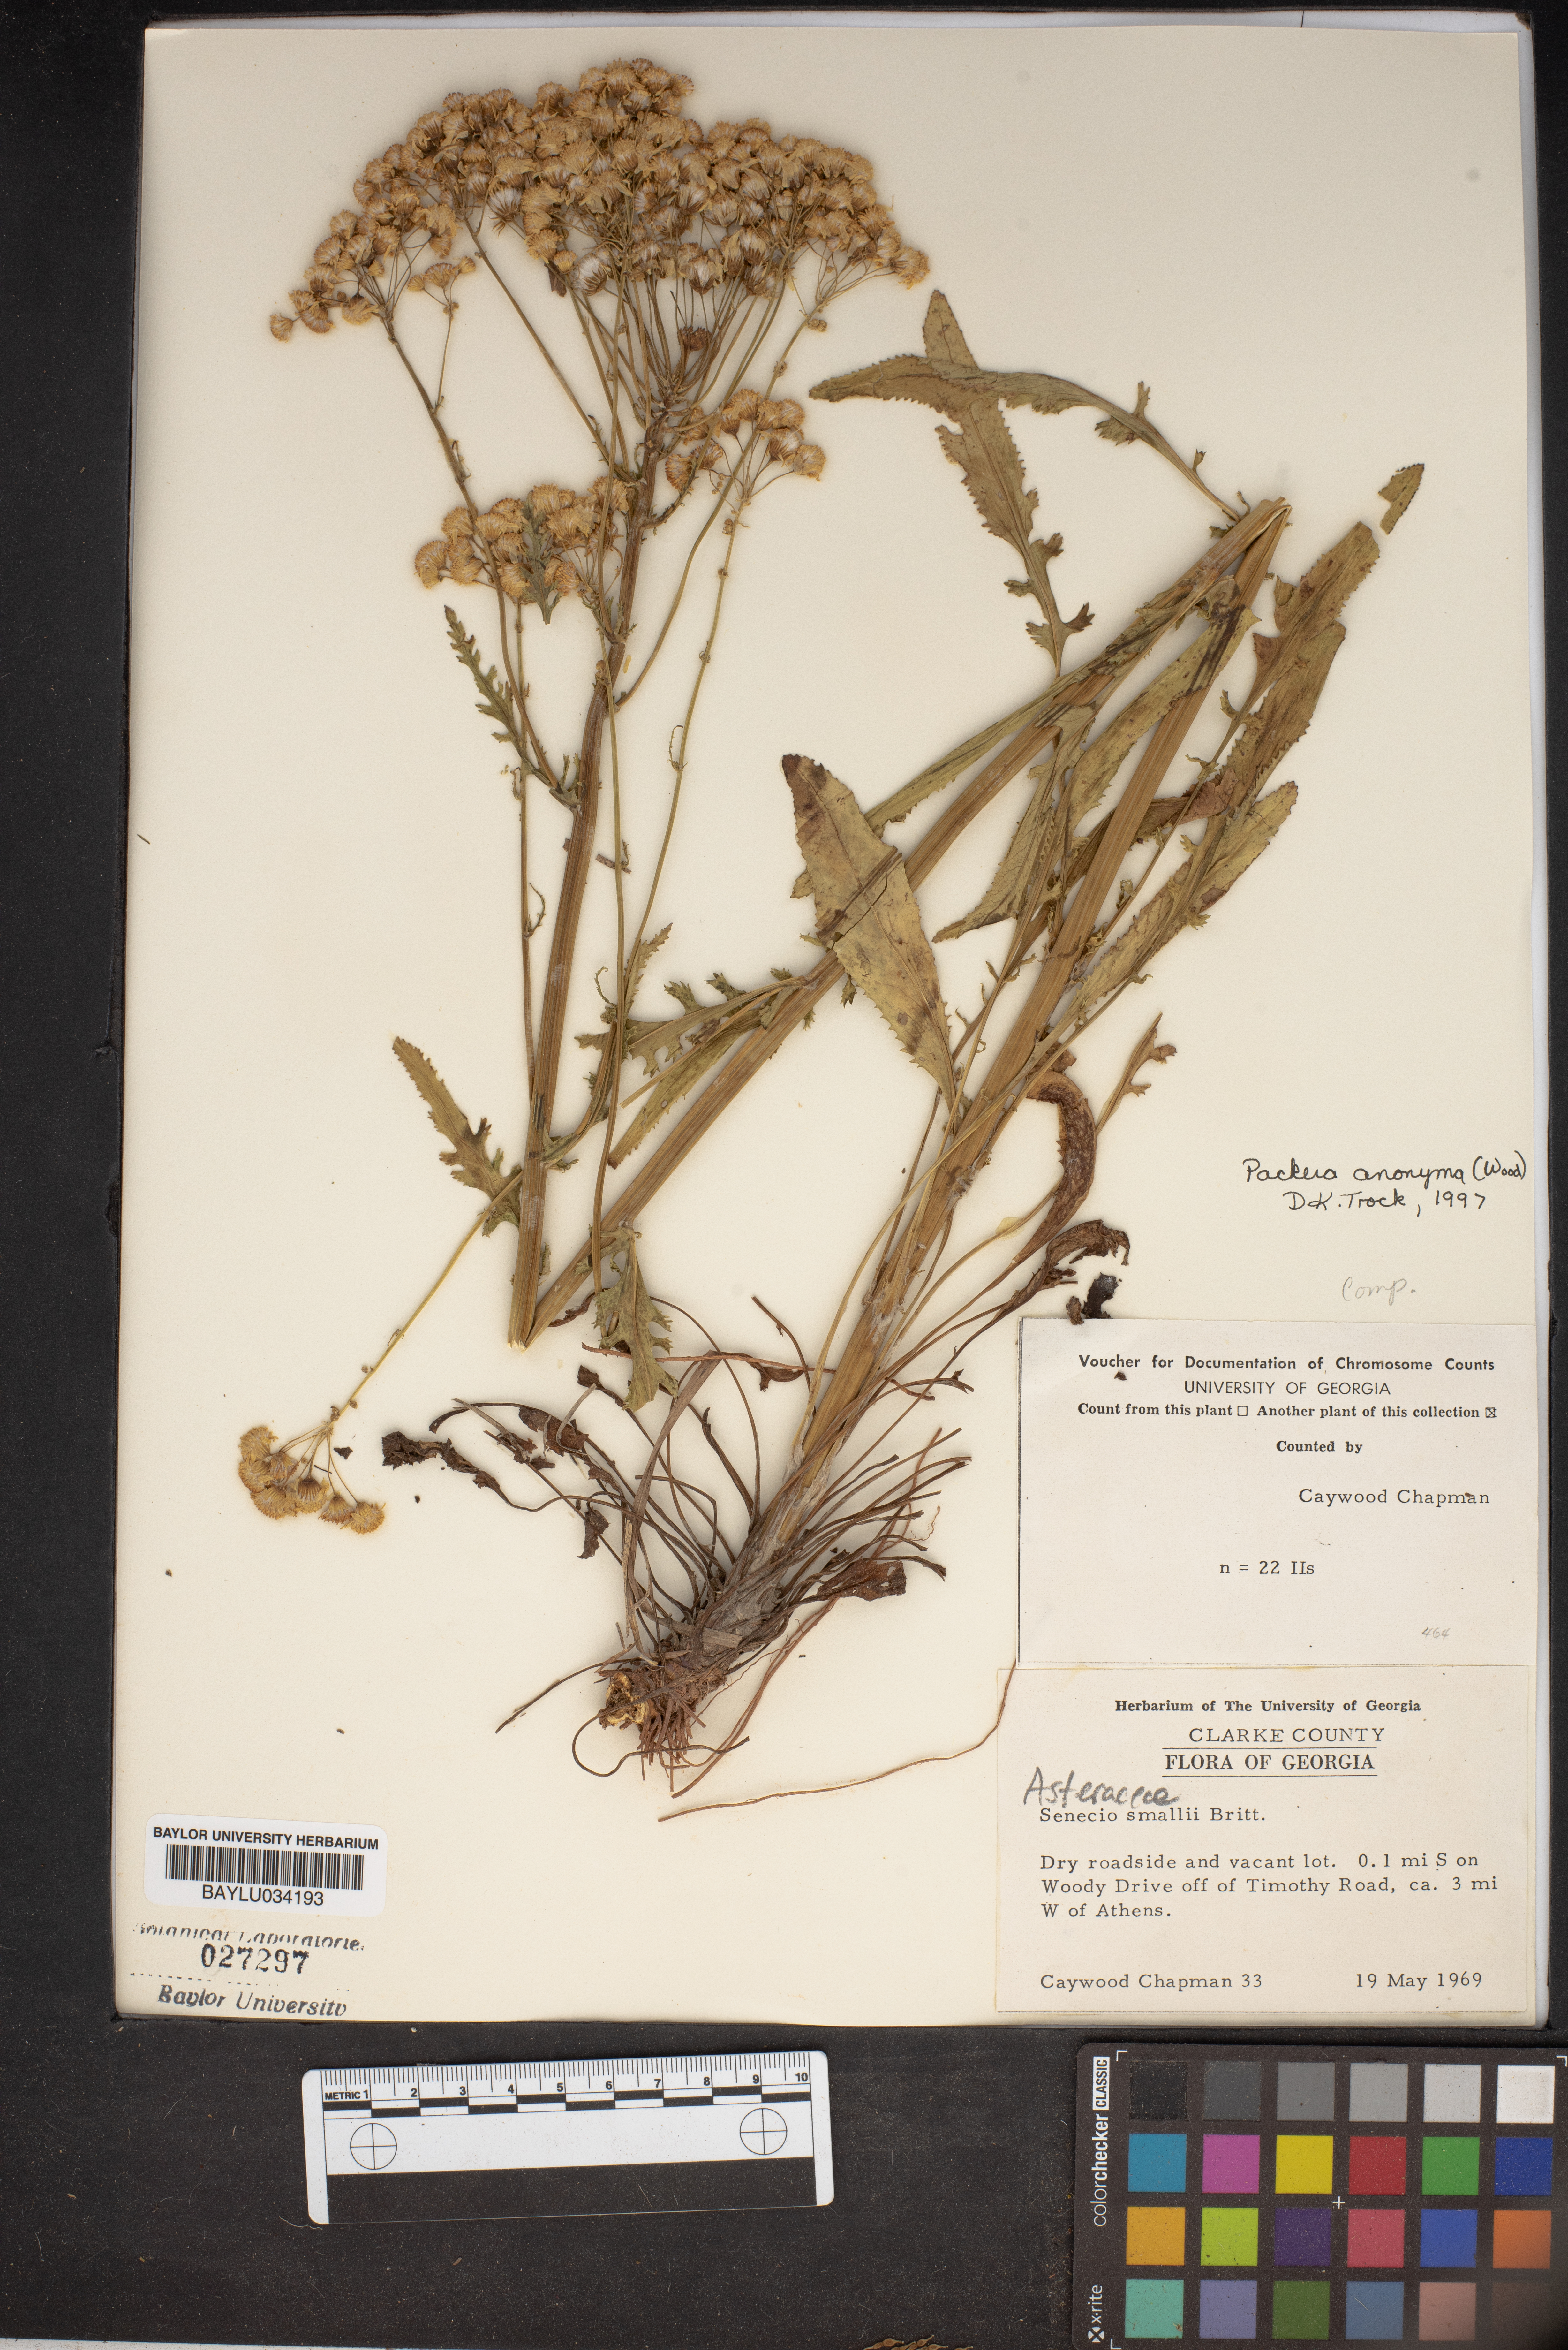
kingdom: Plantae
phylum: Tracheophyta
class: Magnoliopsida
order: Asterales
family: Asteraceae
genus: Packera
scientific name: Packera anonyma
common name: Small ragwort
